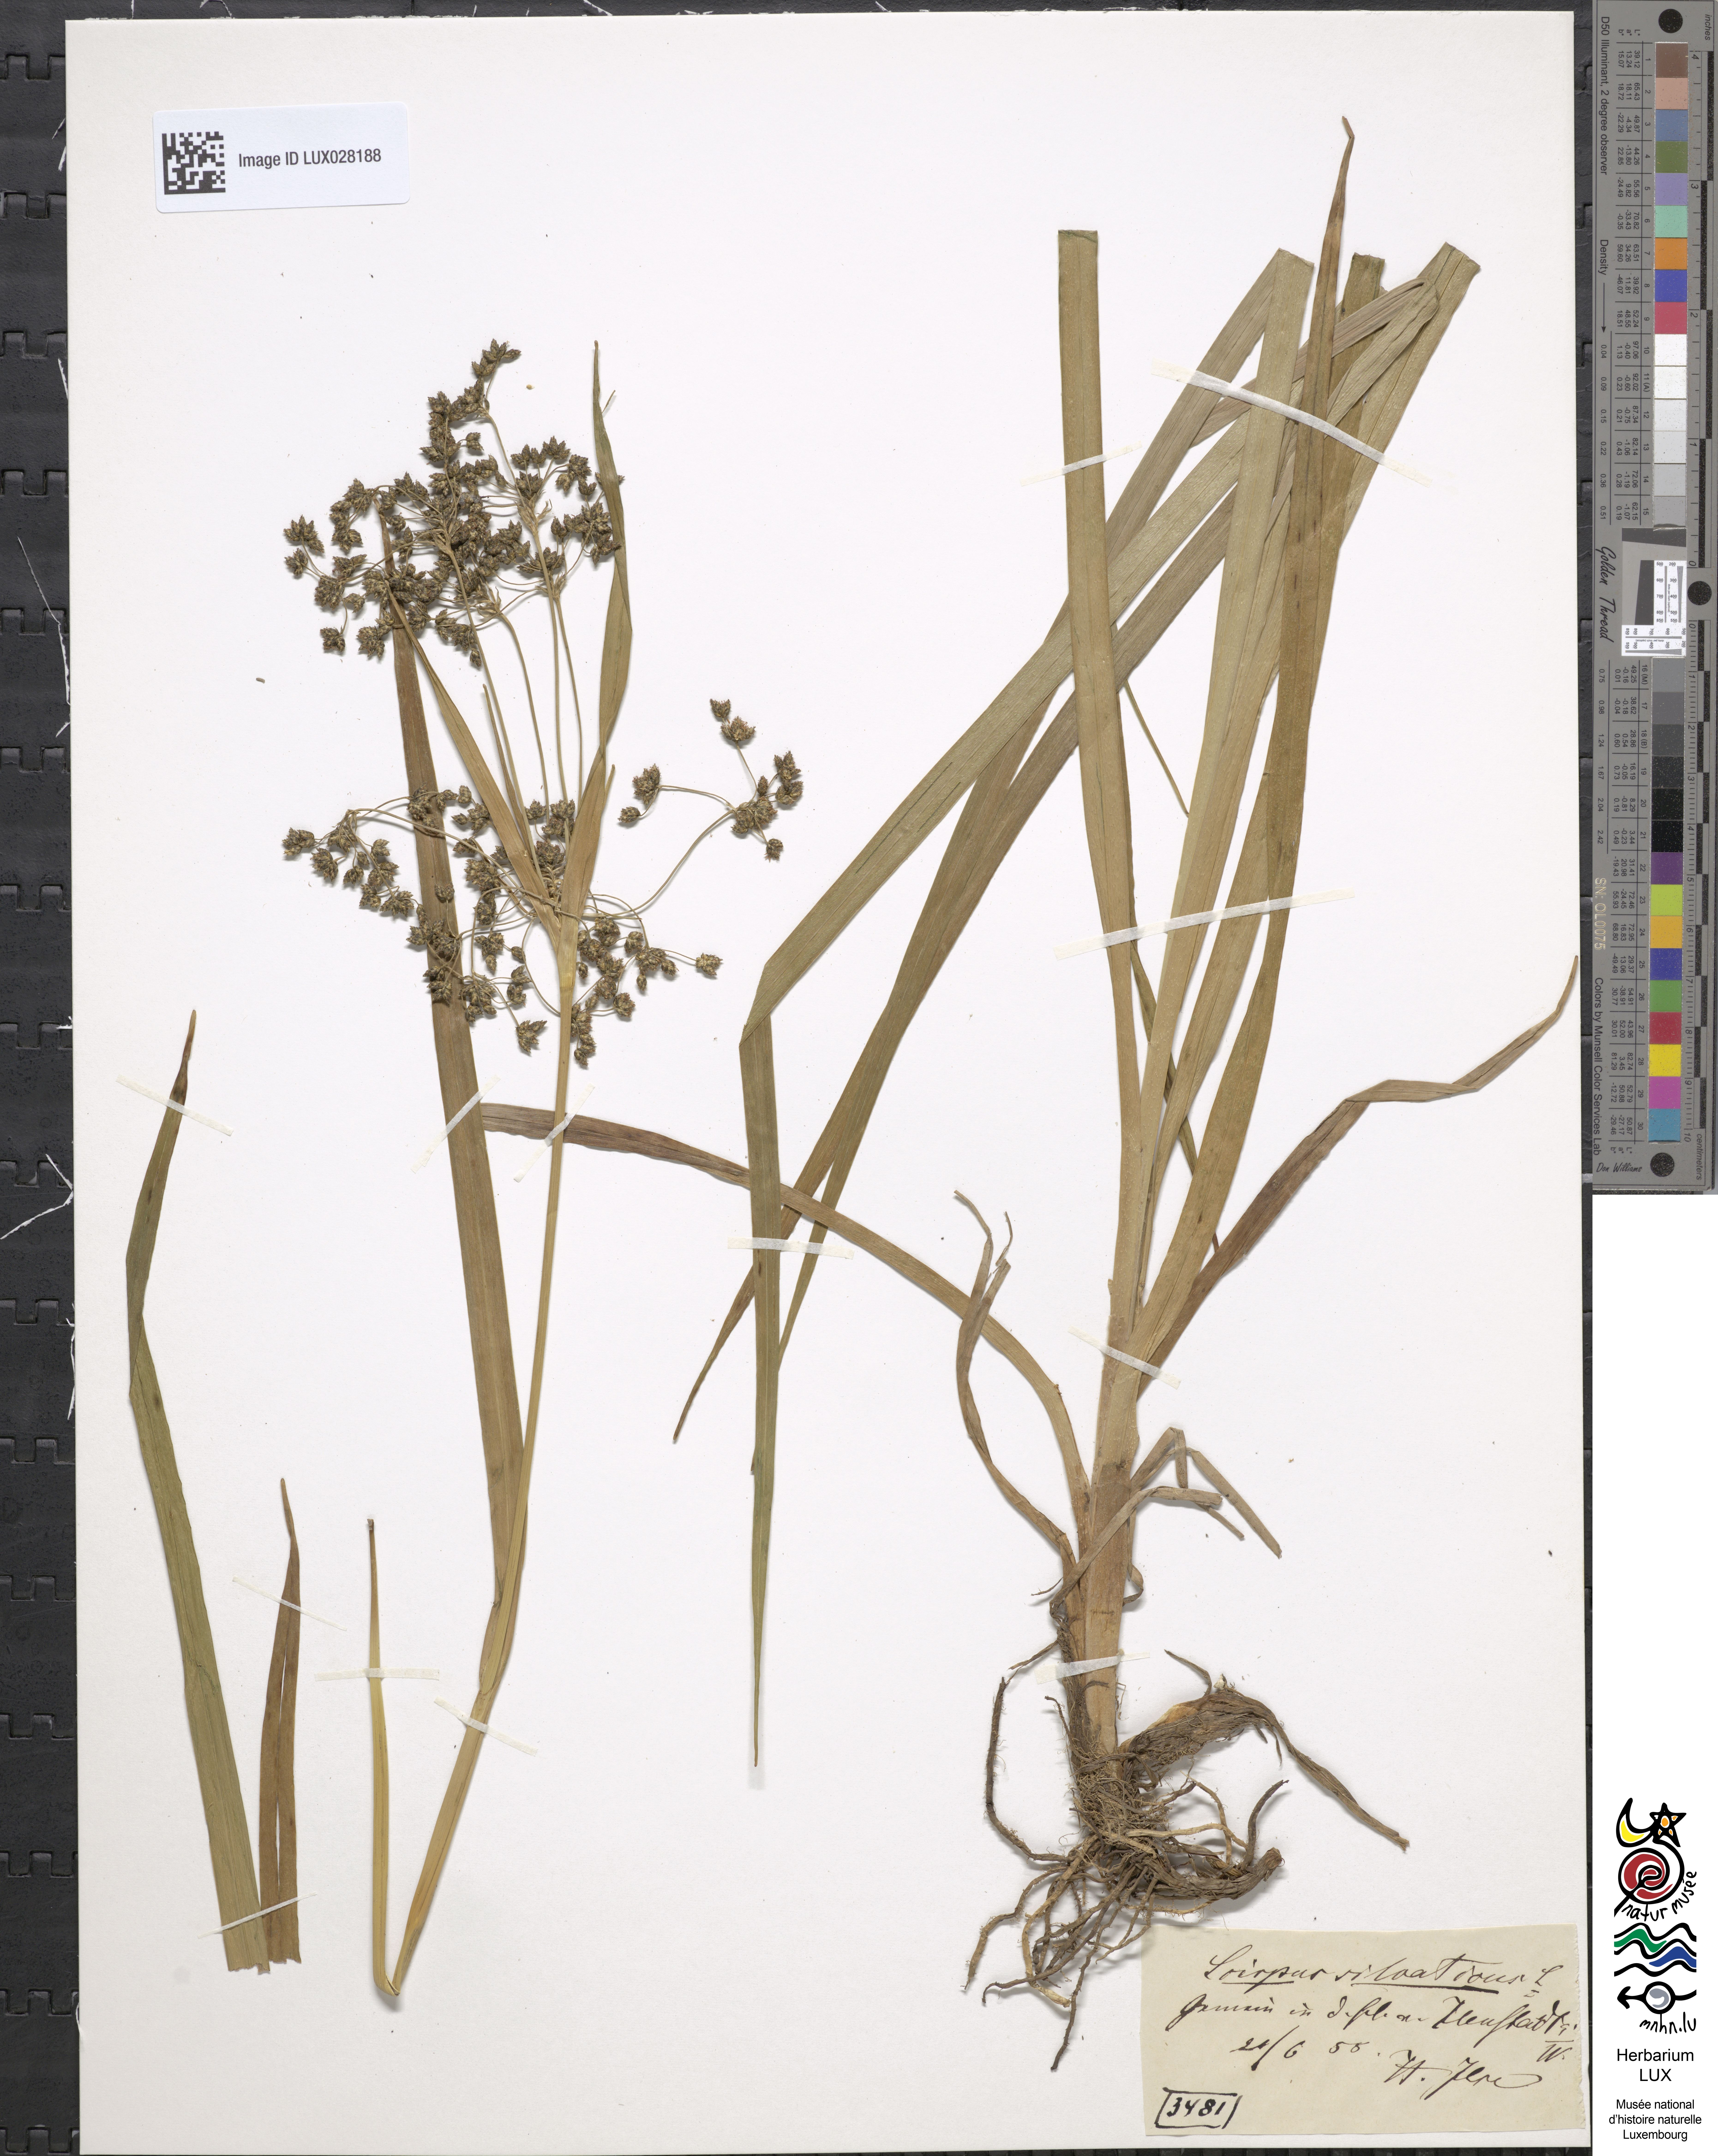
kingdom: Plantae
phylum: Tracheophyta
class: Liliopsida
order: Poales
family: Cyperaceae
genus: Scirpus
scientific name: Scirpus sylvaticus
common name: Wood club-rush
